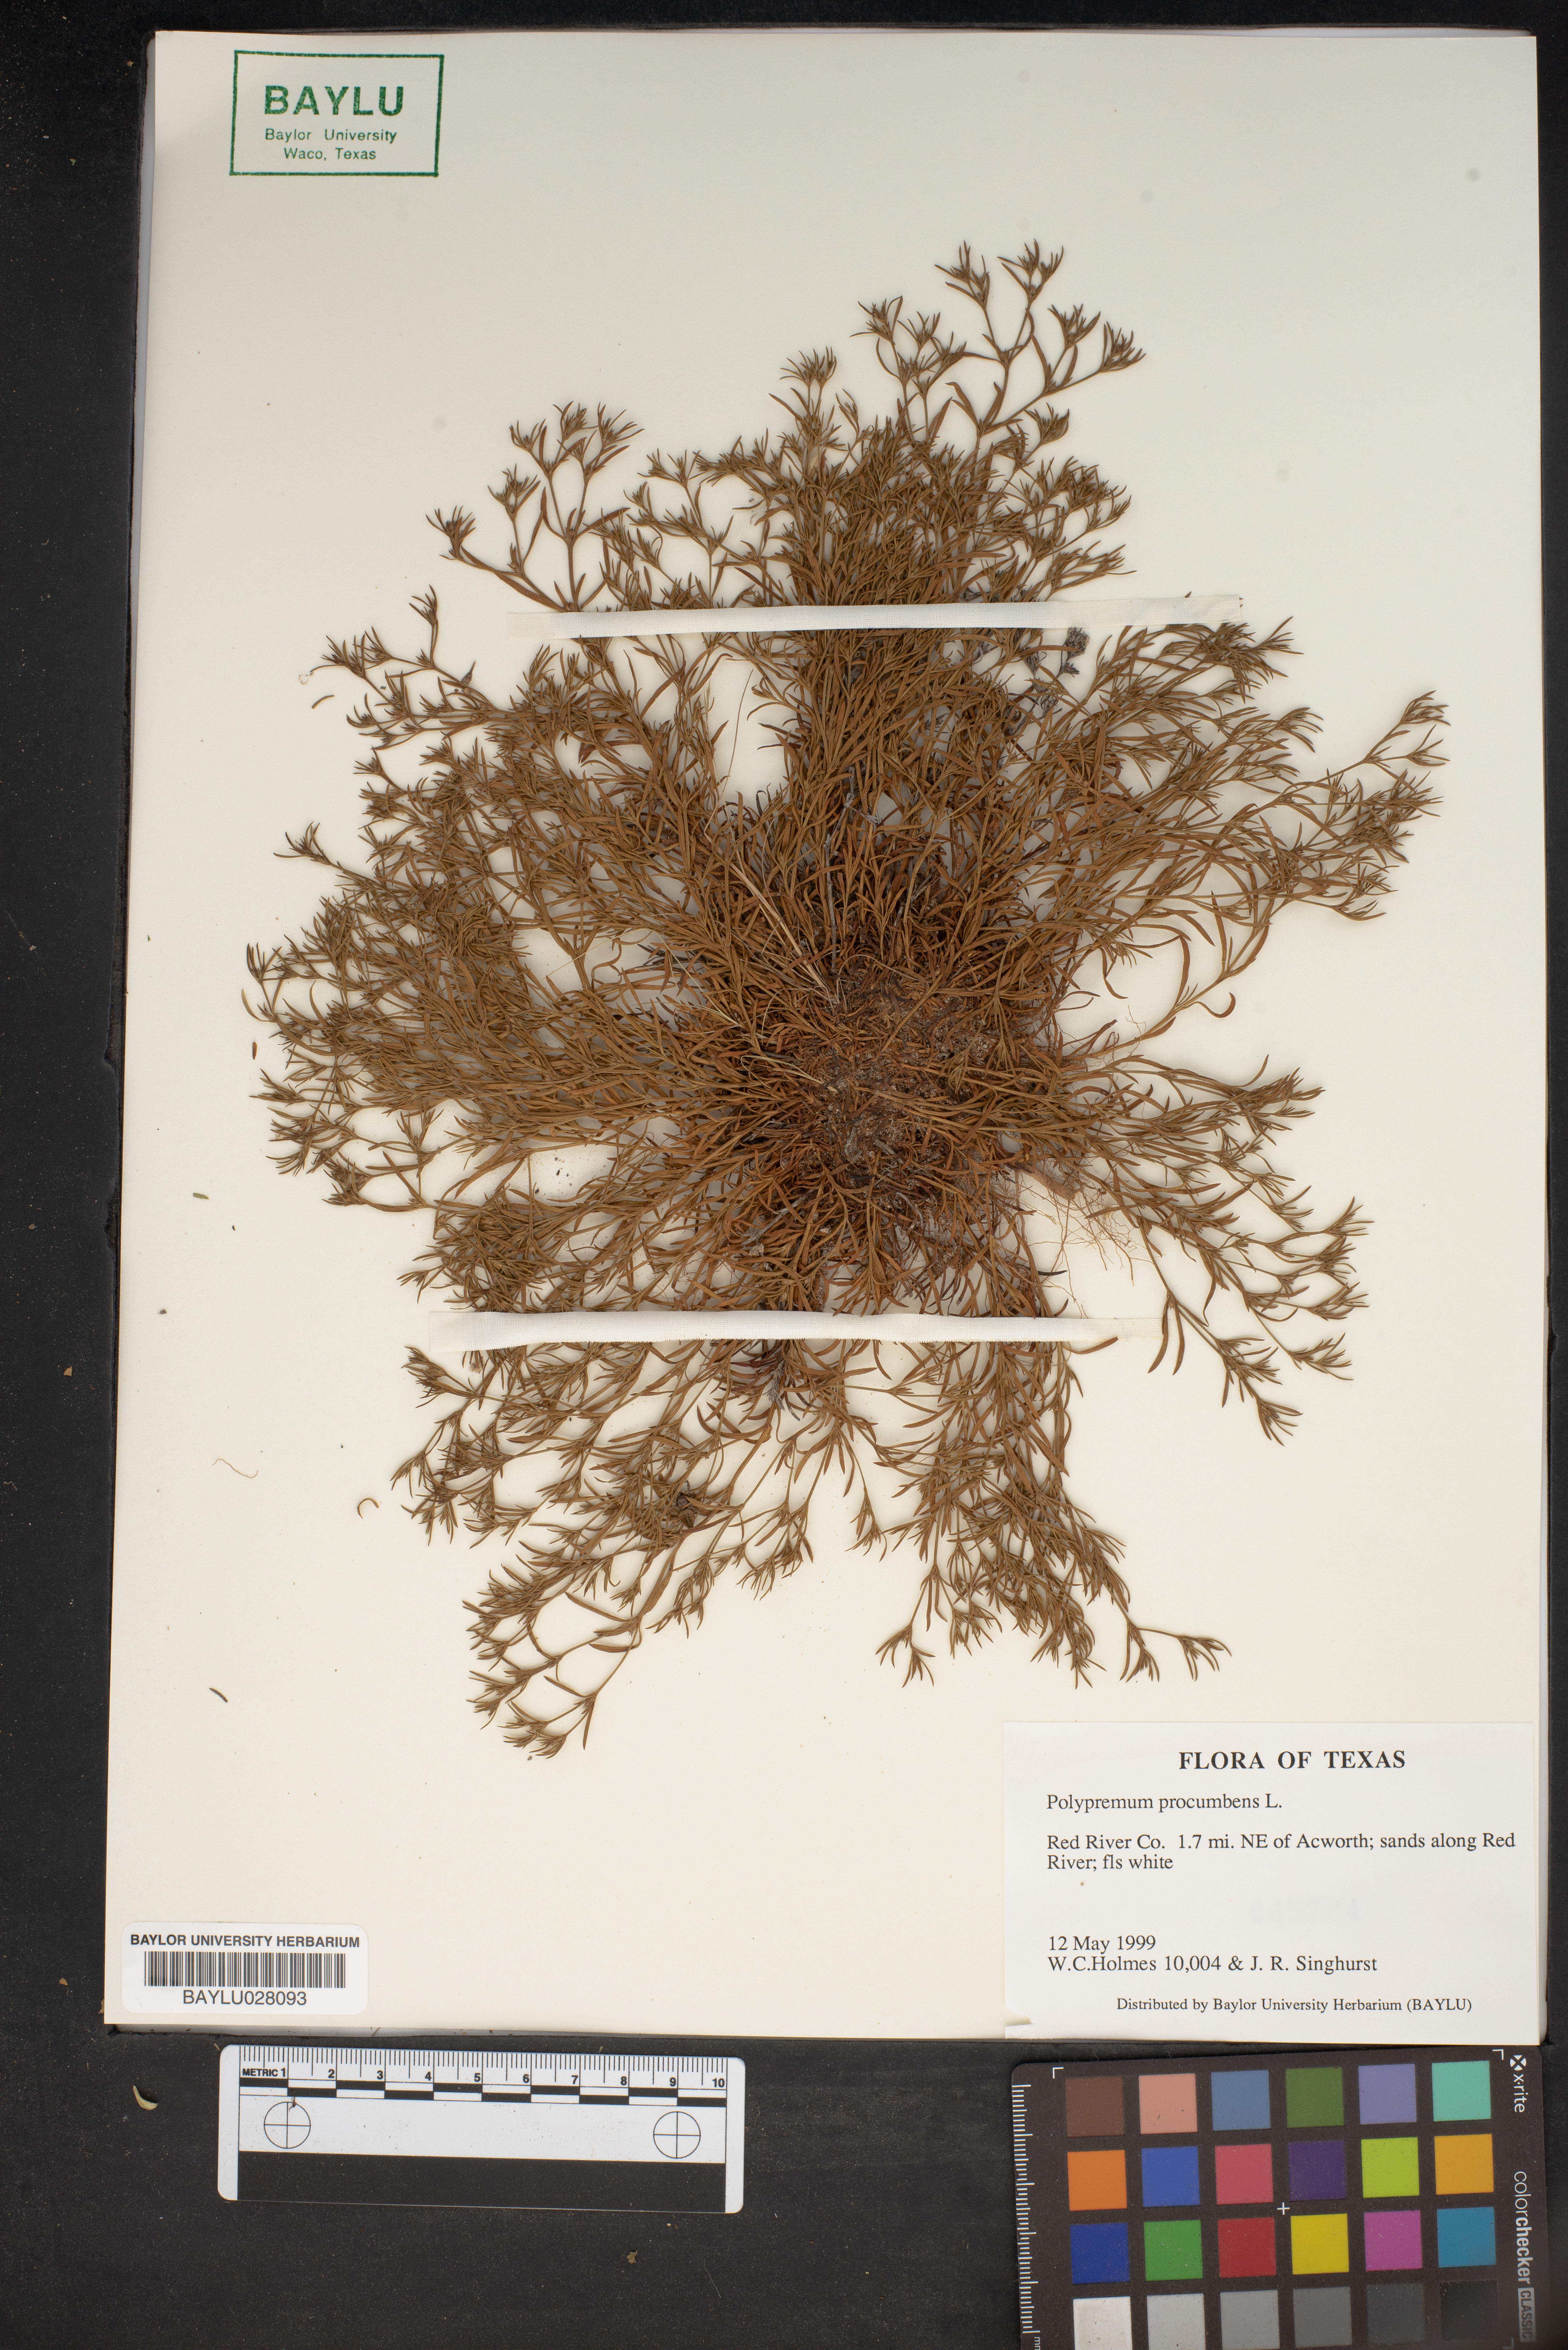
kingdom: Plantae
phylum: Tracheophyta
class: Magnoliopsida
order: Lamiales
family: Tetrachondraceae
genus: Polypremum
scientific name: Polypremum procumbens
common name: Juniper-leaf
